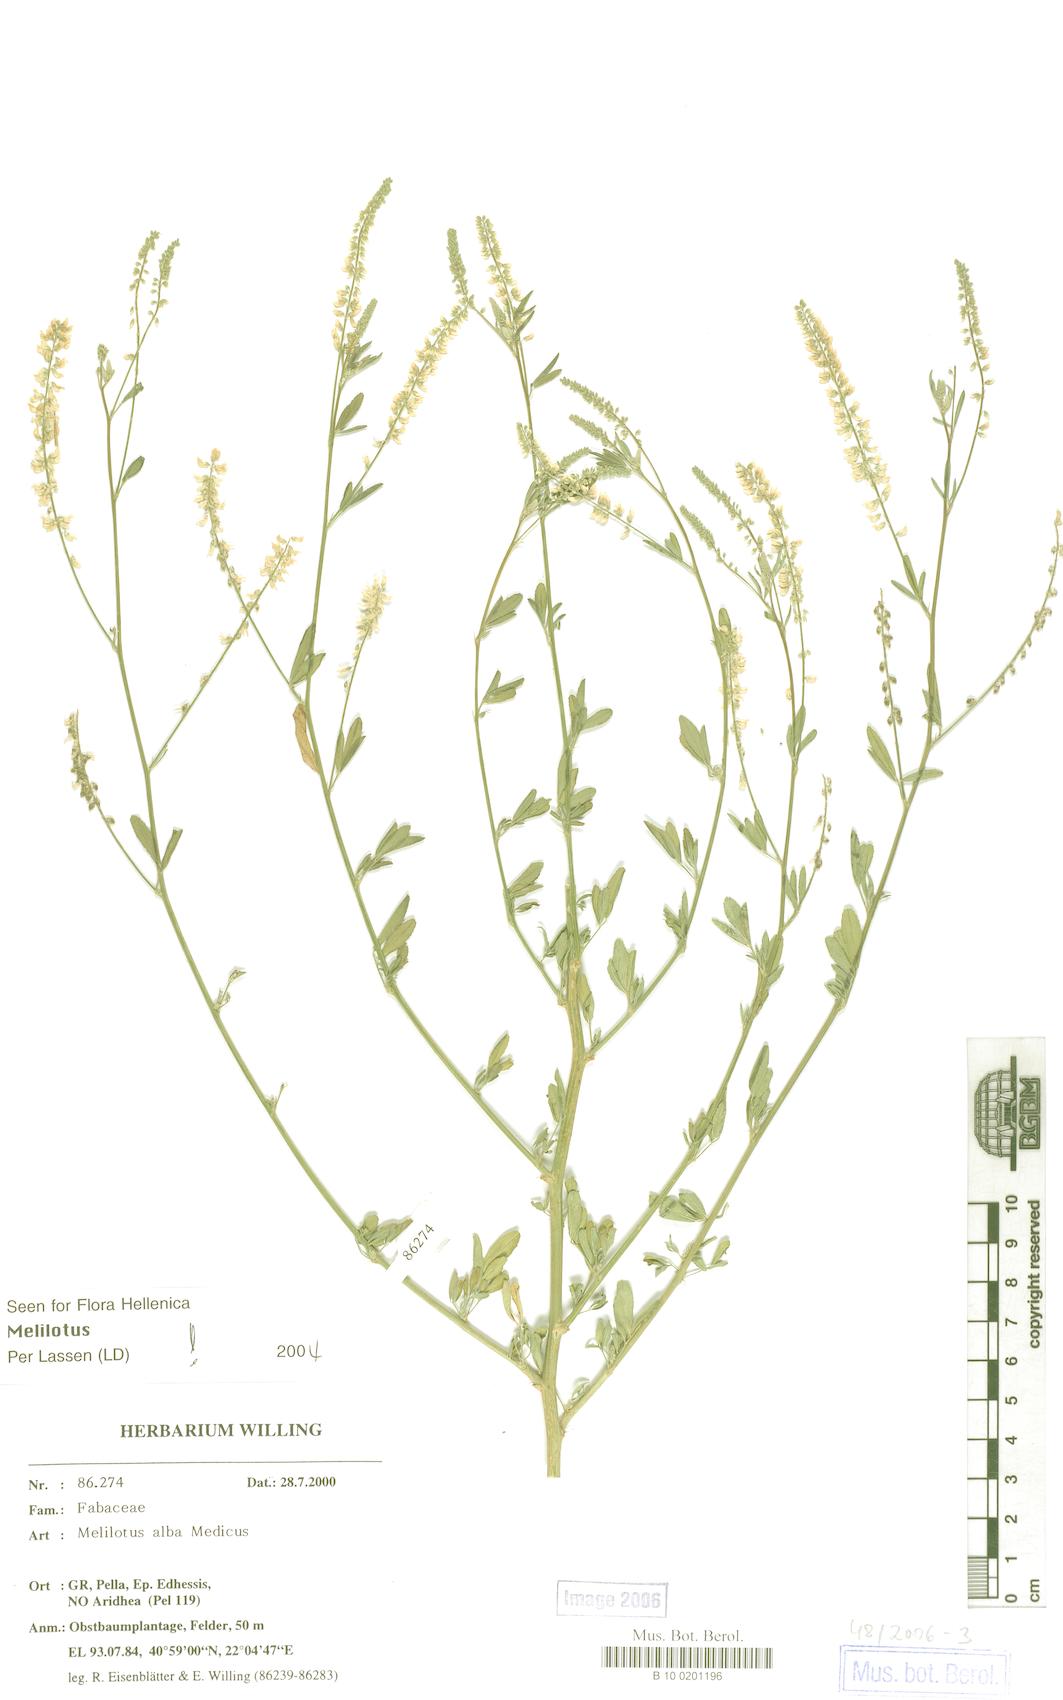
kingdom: Plantae
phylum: Tracheophyta
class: Magnoliopsida
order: Fabales
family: Fabaceae
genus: Melilotus
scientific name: Melilotus albus
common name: White melilot
